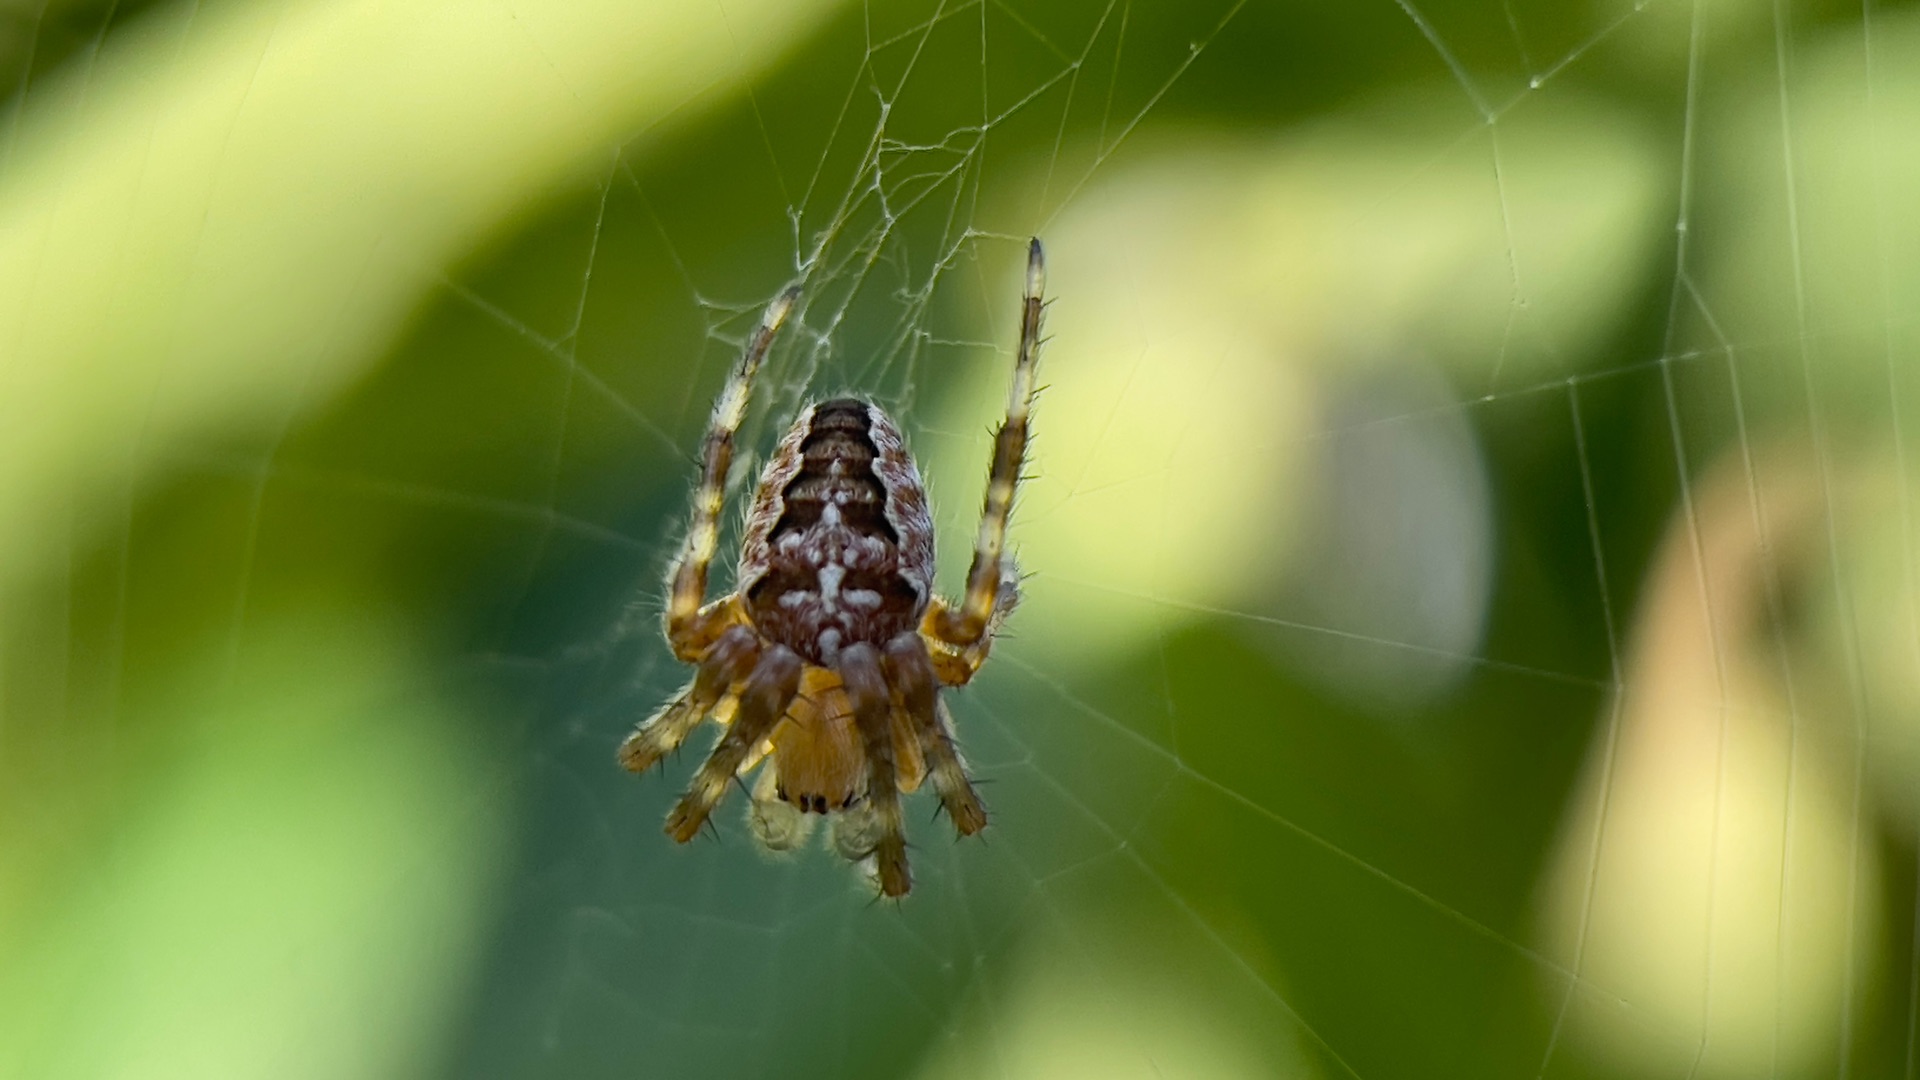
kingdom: Animalia
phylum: Arthropoda
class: Arachnida
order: Araneae
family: Araneidae
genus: Araneus
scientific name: Araneus diadematus
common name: Korsedderkop
